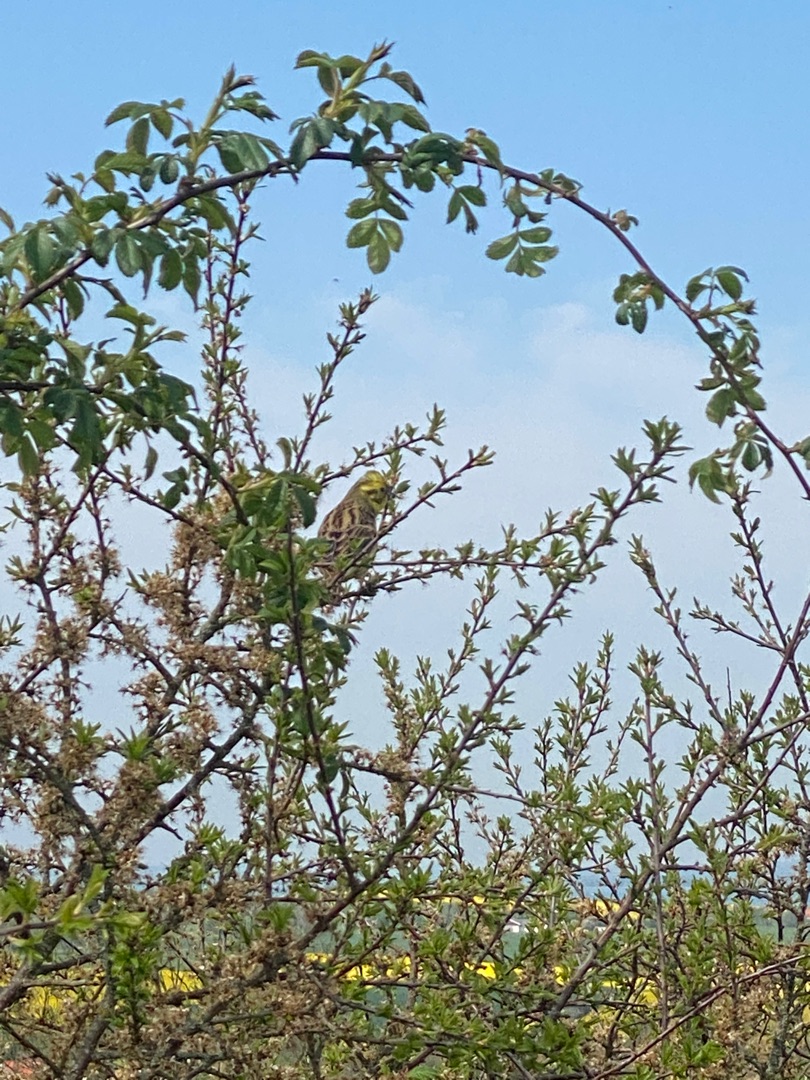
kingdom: Animalia
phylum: Chordata
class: Aves
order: Passeriformes
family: Emberizidae
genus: Emberiza
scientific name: Emberiza citrinella
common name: Gulspurv
